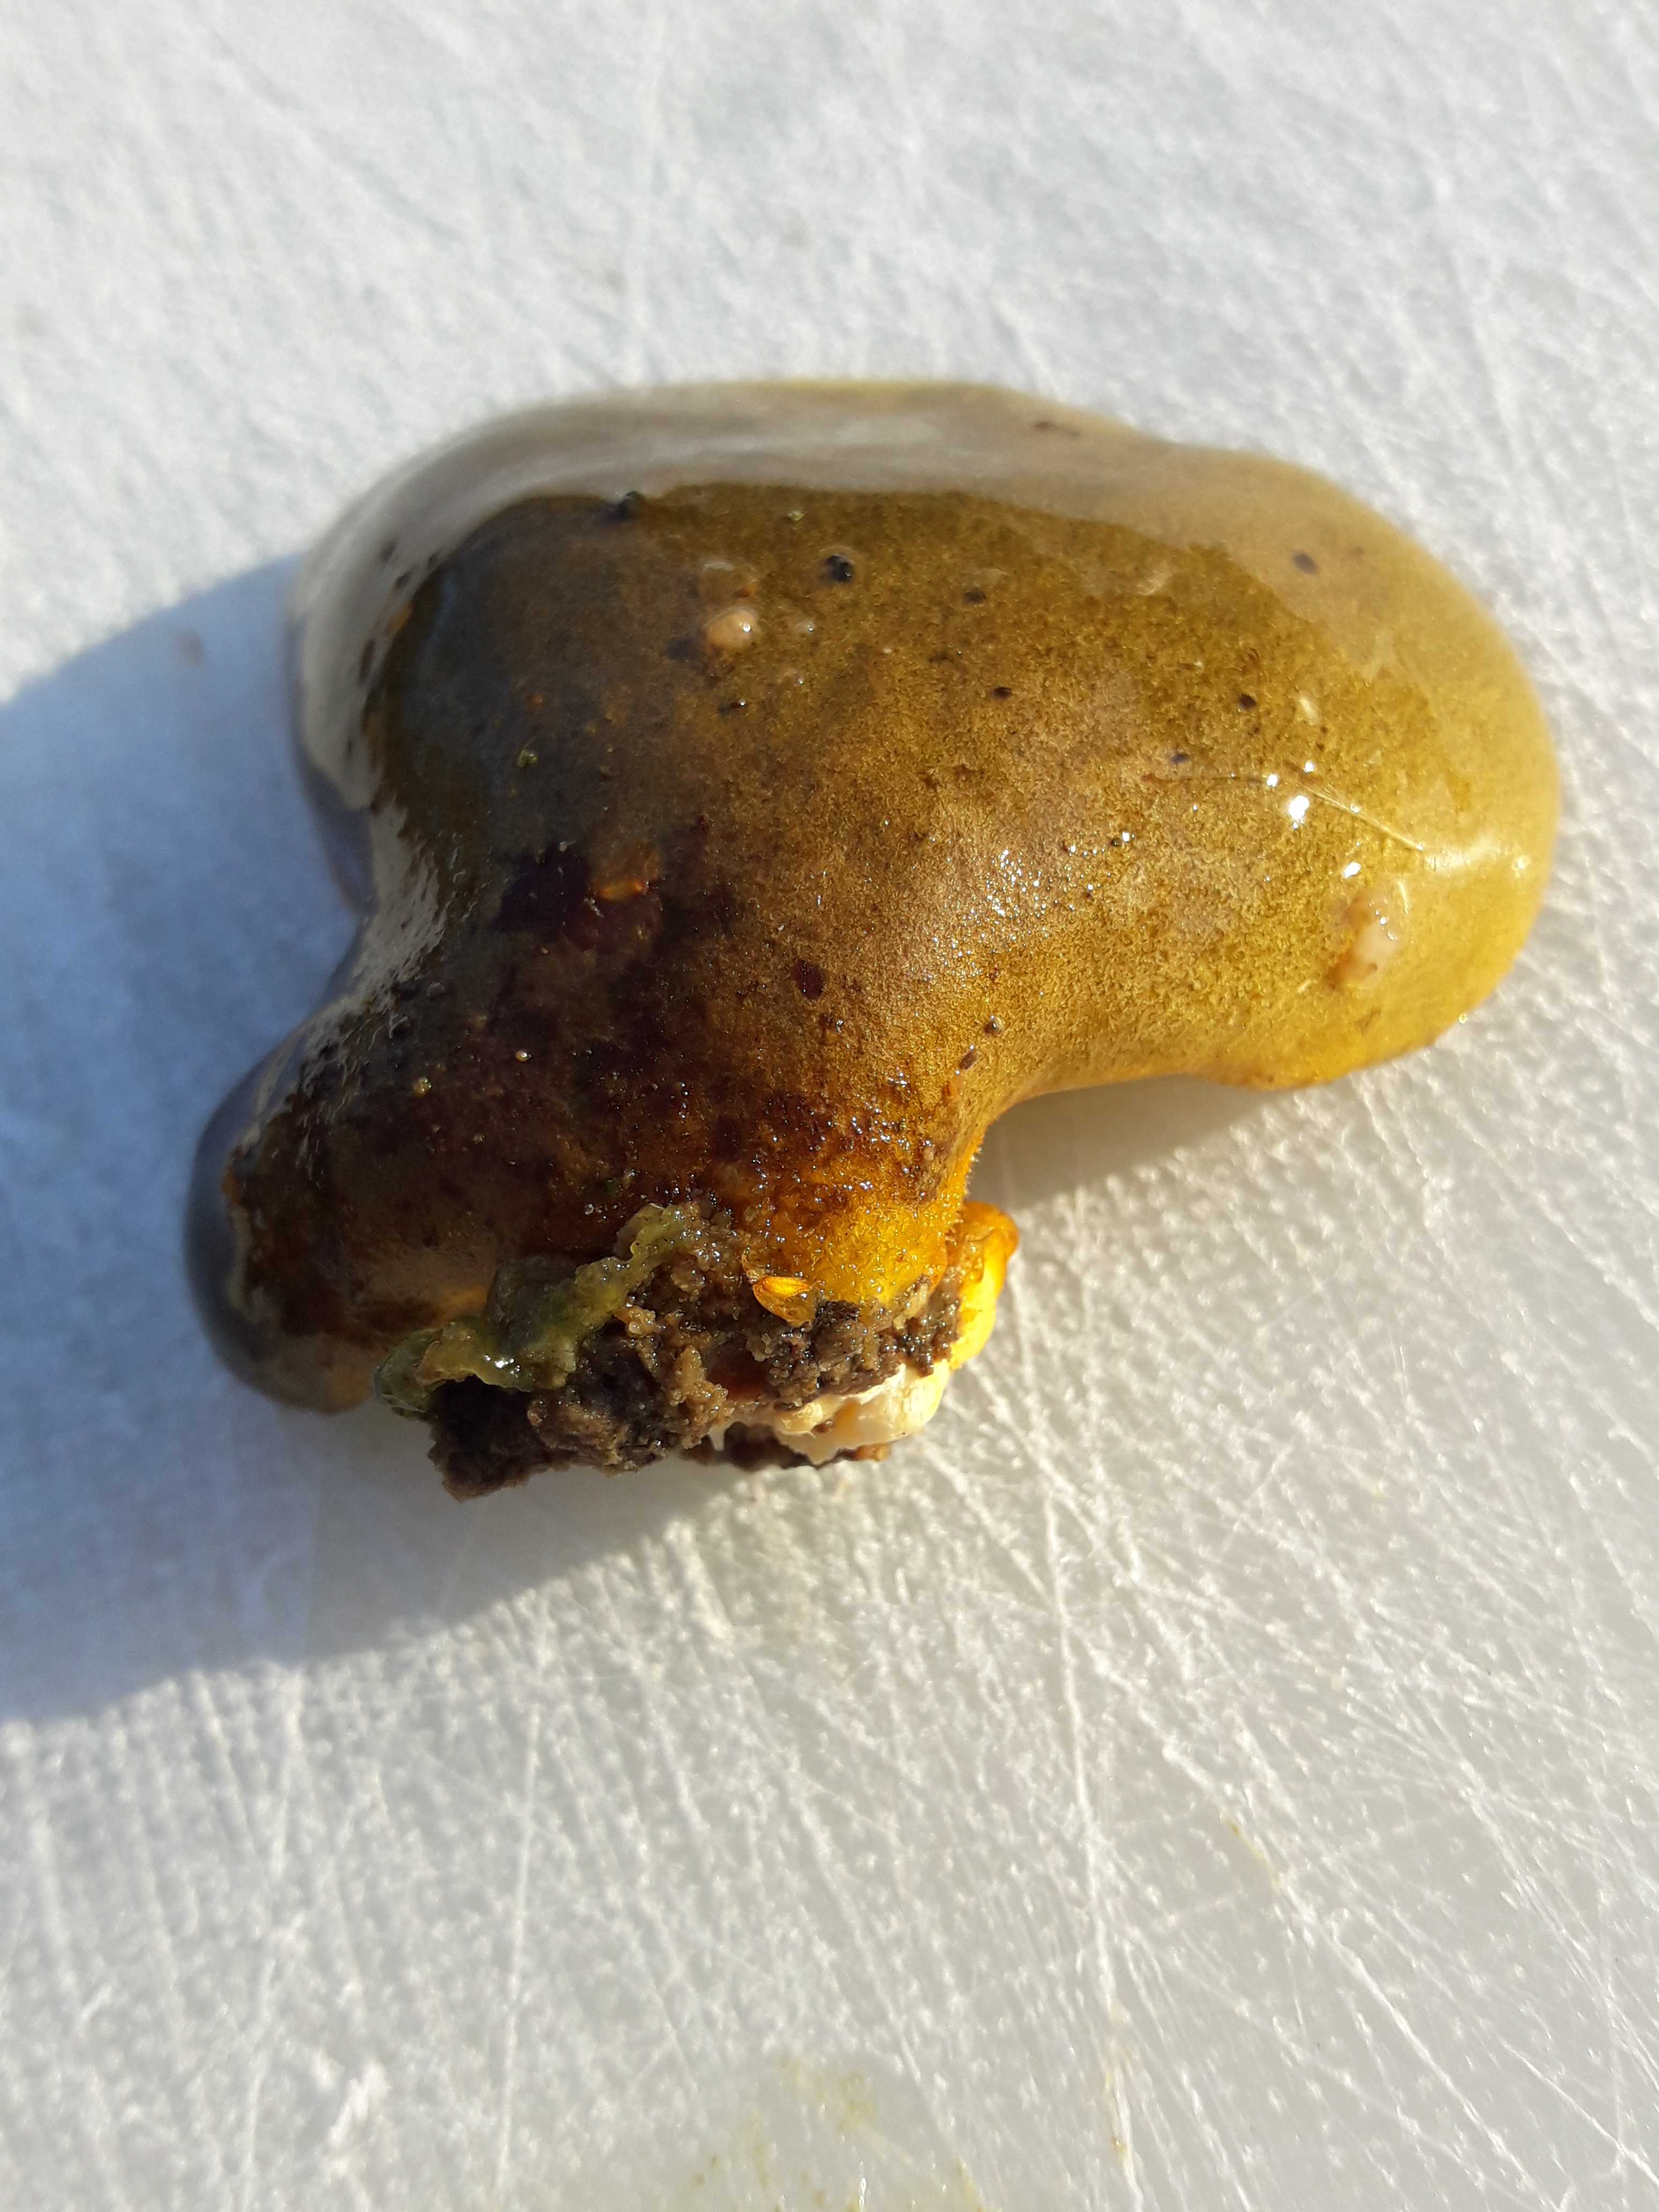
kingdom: Fungi
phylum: Basidiomycota
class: Agaricomycetes
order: Agaricales
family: Sarcomyxaceae
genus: Sarcomyxa
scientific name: Sarcomyxa serotina
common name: gummihat
